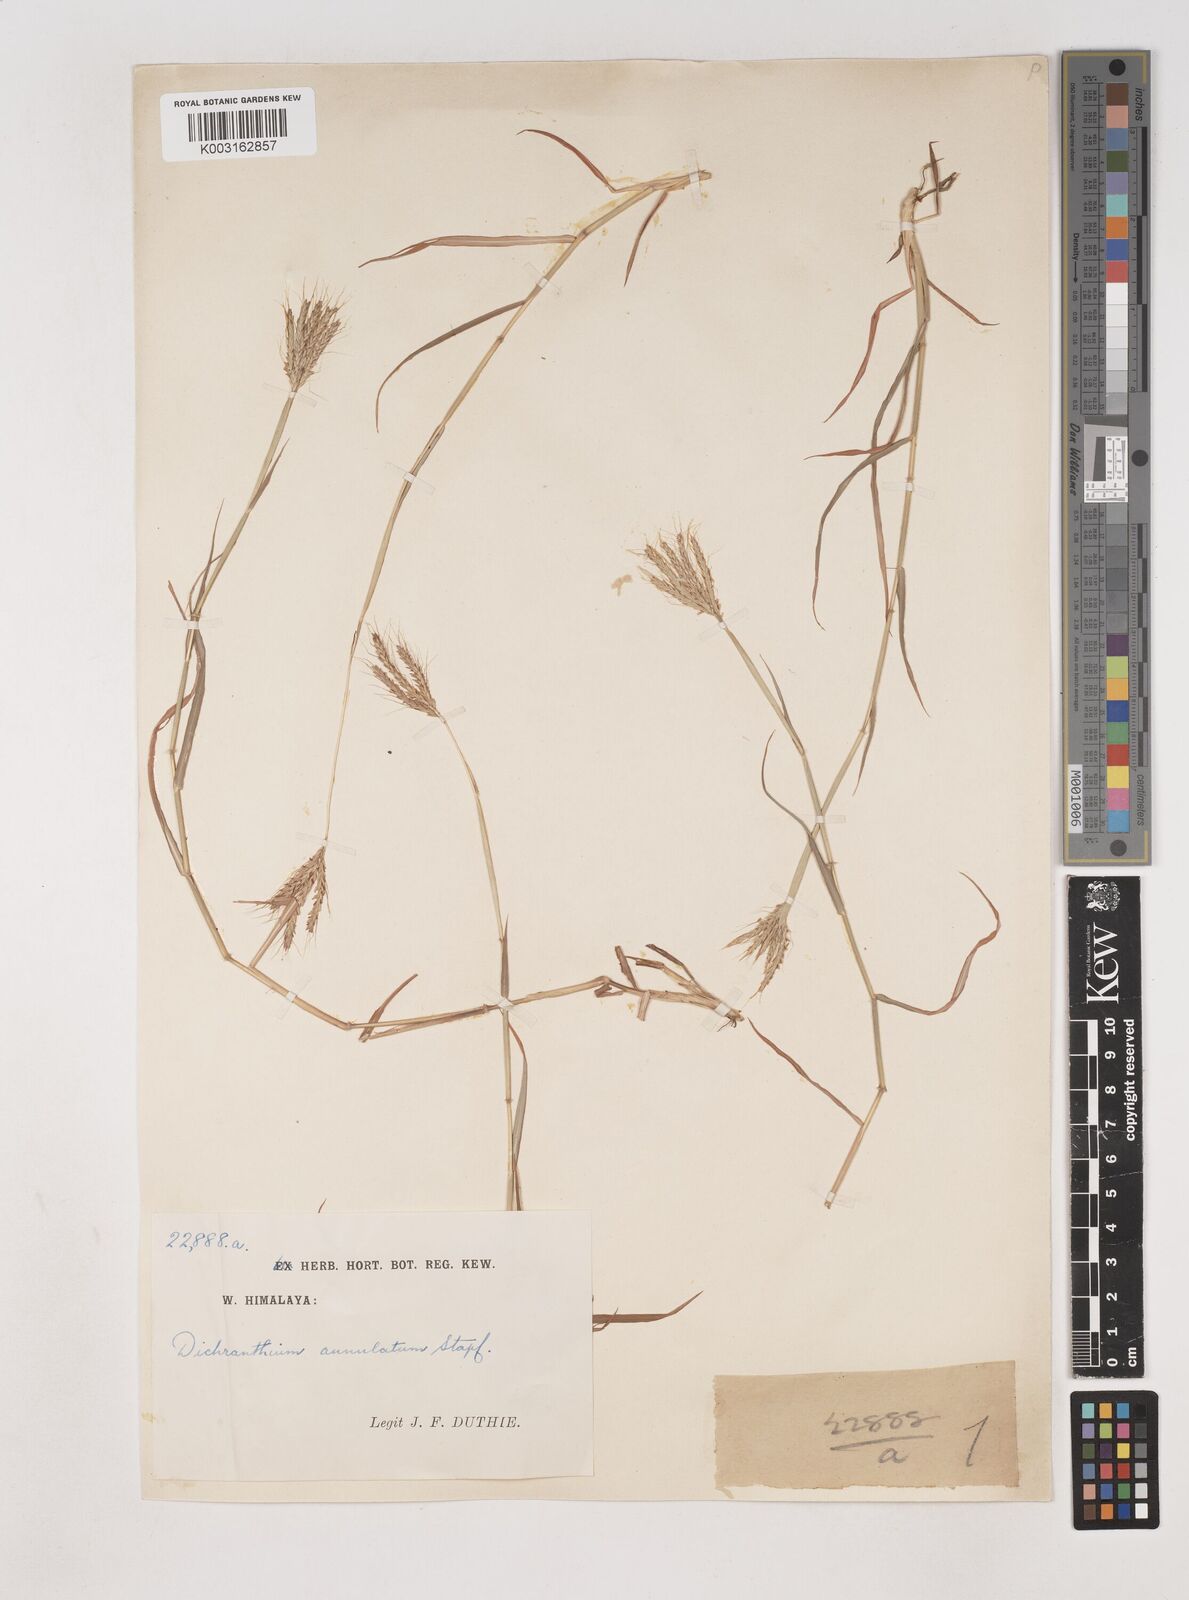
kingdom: Plantae
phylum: Tracheophyta
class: Liliopsida
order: Poales
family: Poaceae
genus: Dichanthium
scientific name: Dichanthium annulatum
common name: Kleberg's bluestem
